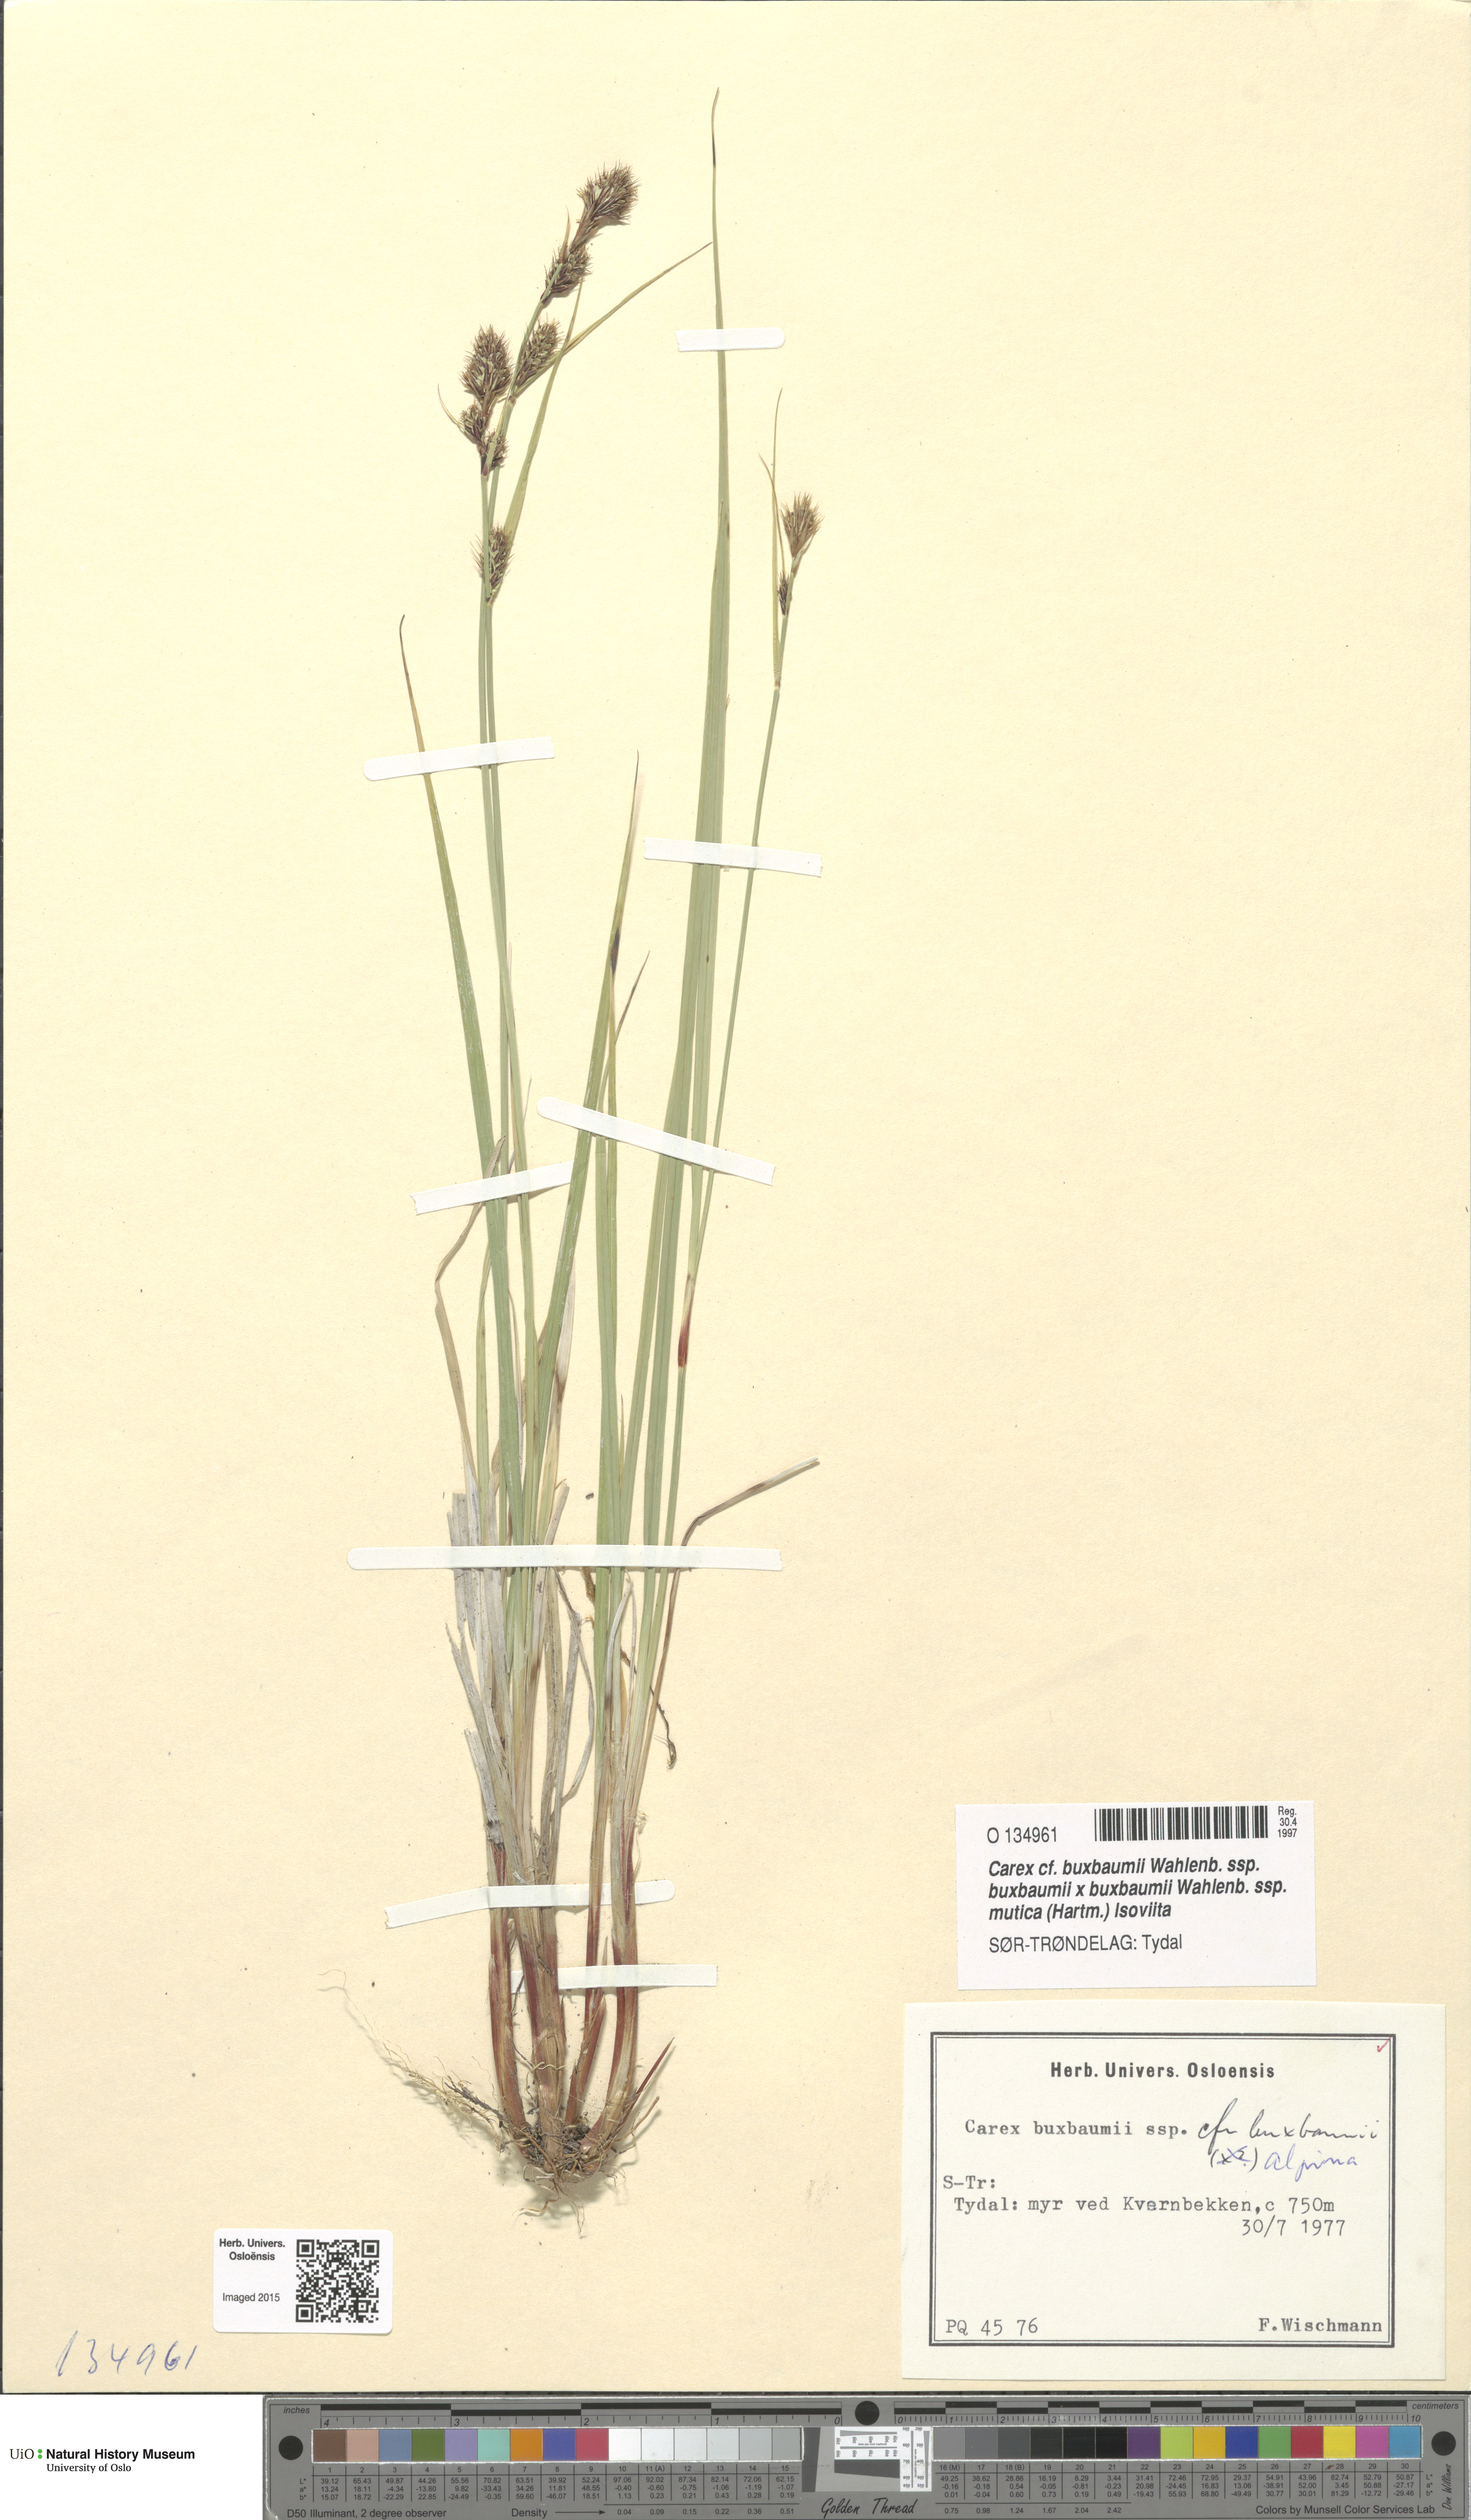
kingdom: Plantae
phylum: Tracheophyta
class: Liliopsida
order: Poales
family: Cyperaceae
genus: Carex
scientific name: Carex buxbaumii
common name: Club sedge
